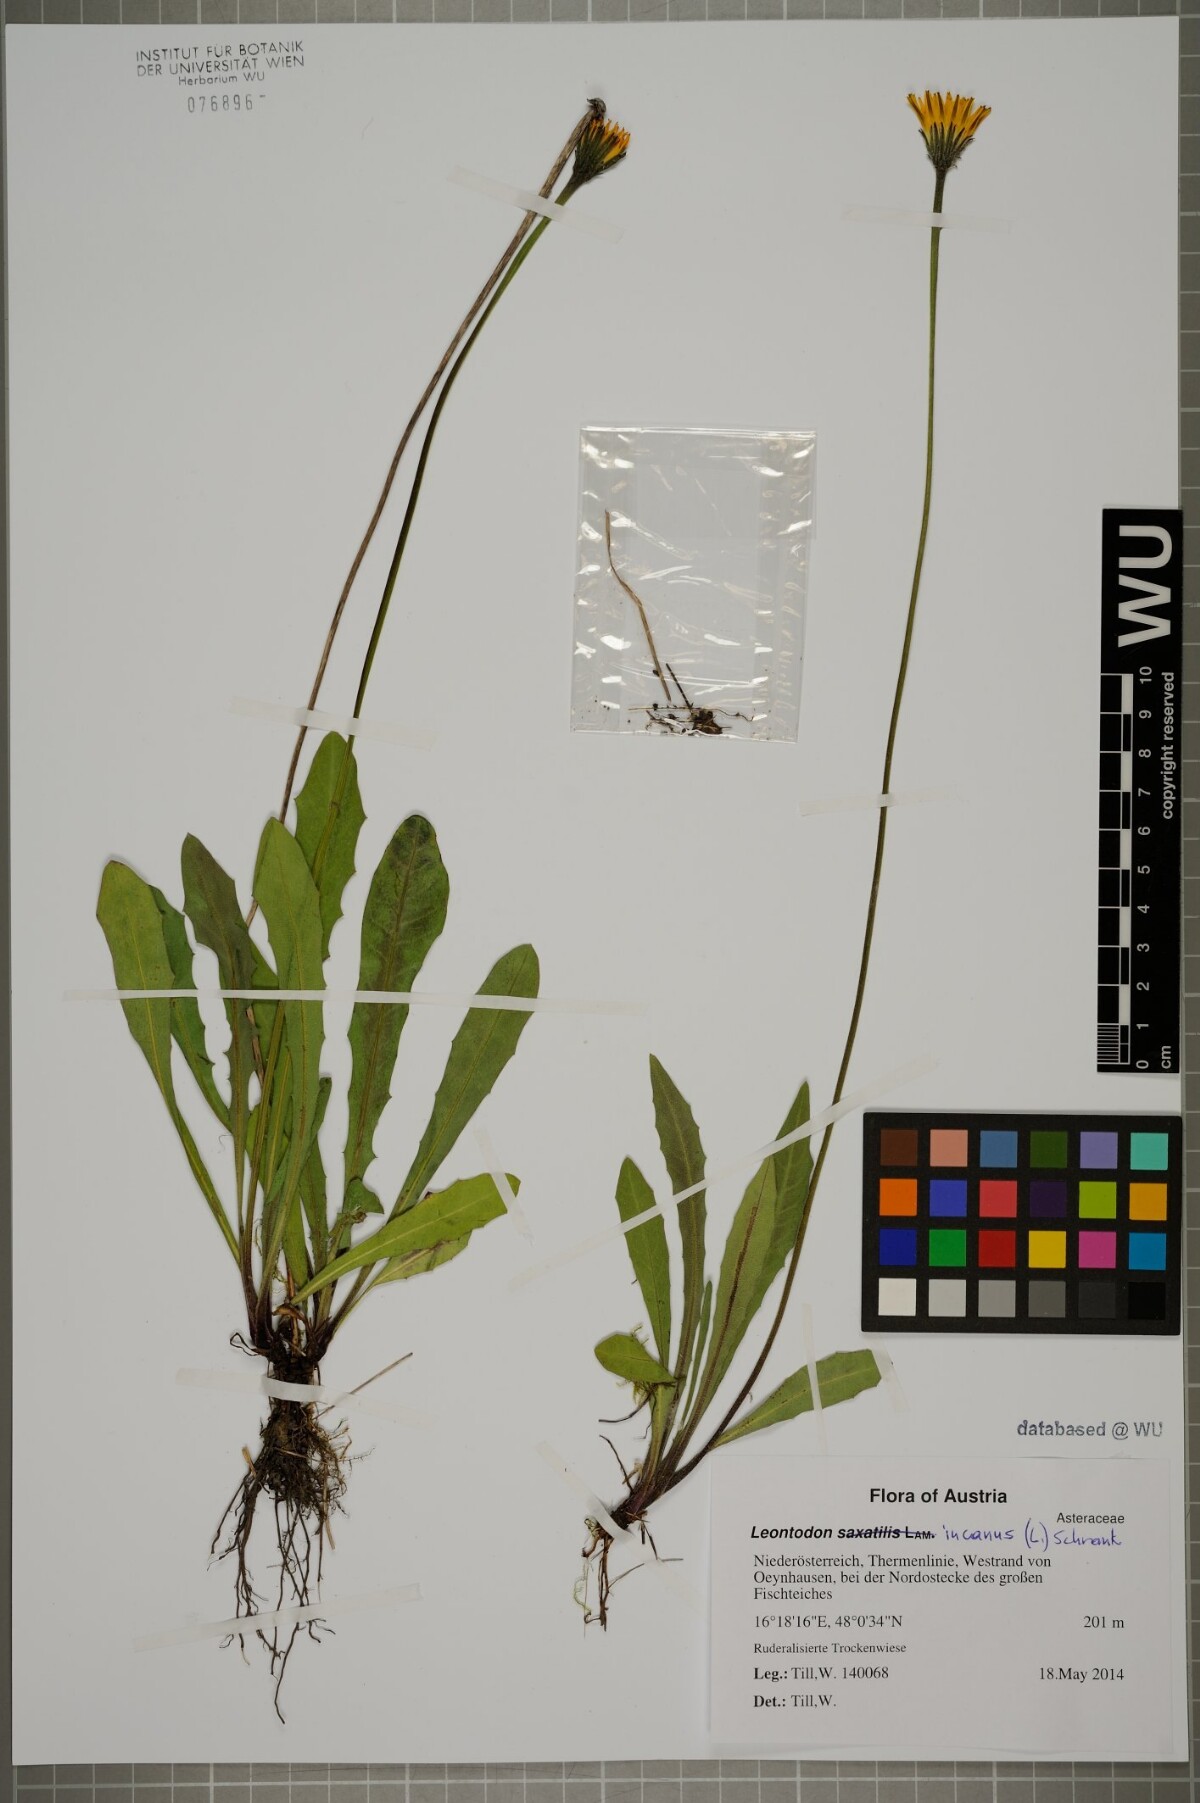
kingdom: Plantae
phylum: Tracheophyta
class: Magnoliopsida
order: Asterales
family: Asteraceae
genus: Leontodon
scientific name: Leontodon hispidus
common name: Rough hawkbit
